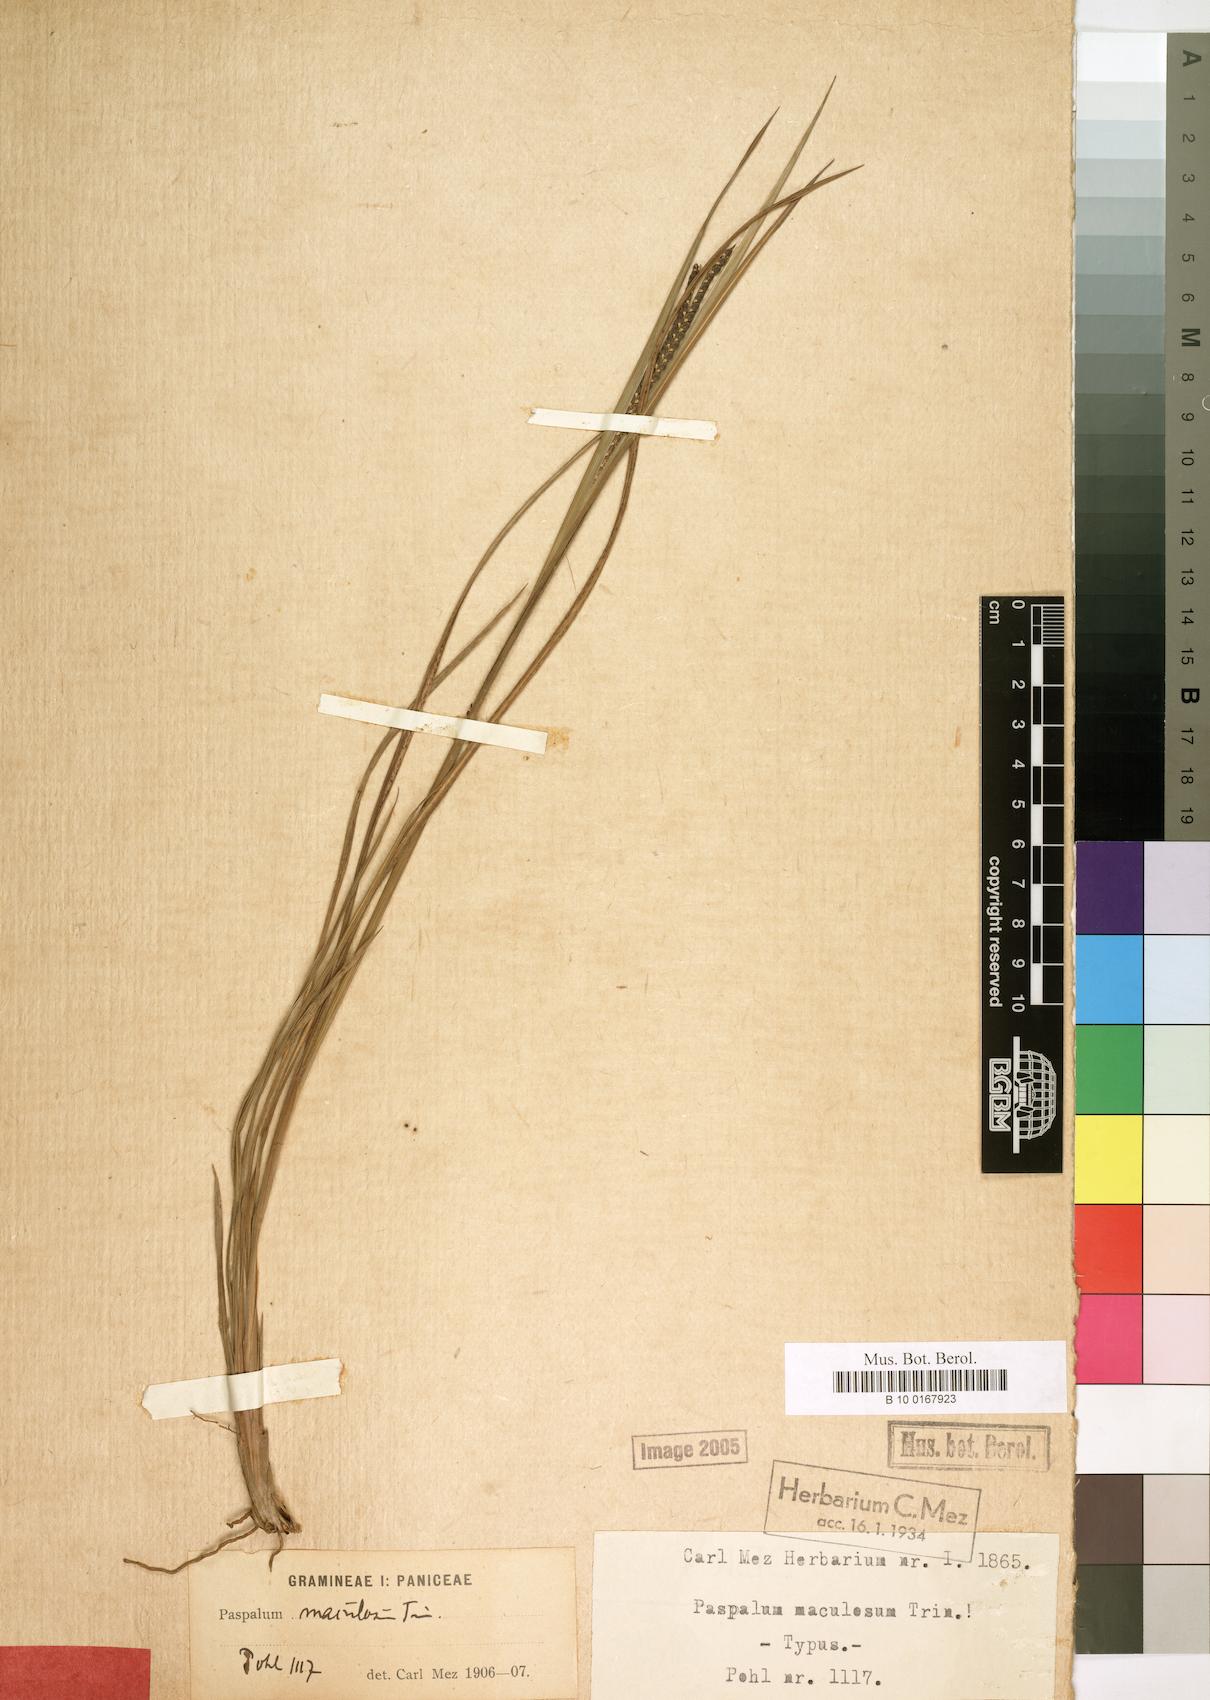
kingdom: Plantae
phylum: Tracheophyta
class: Liliopsida
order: Poales
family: Poaceae
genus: Paspalum
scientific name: Paspalum maculosum
